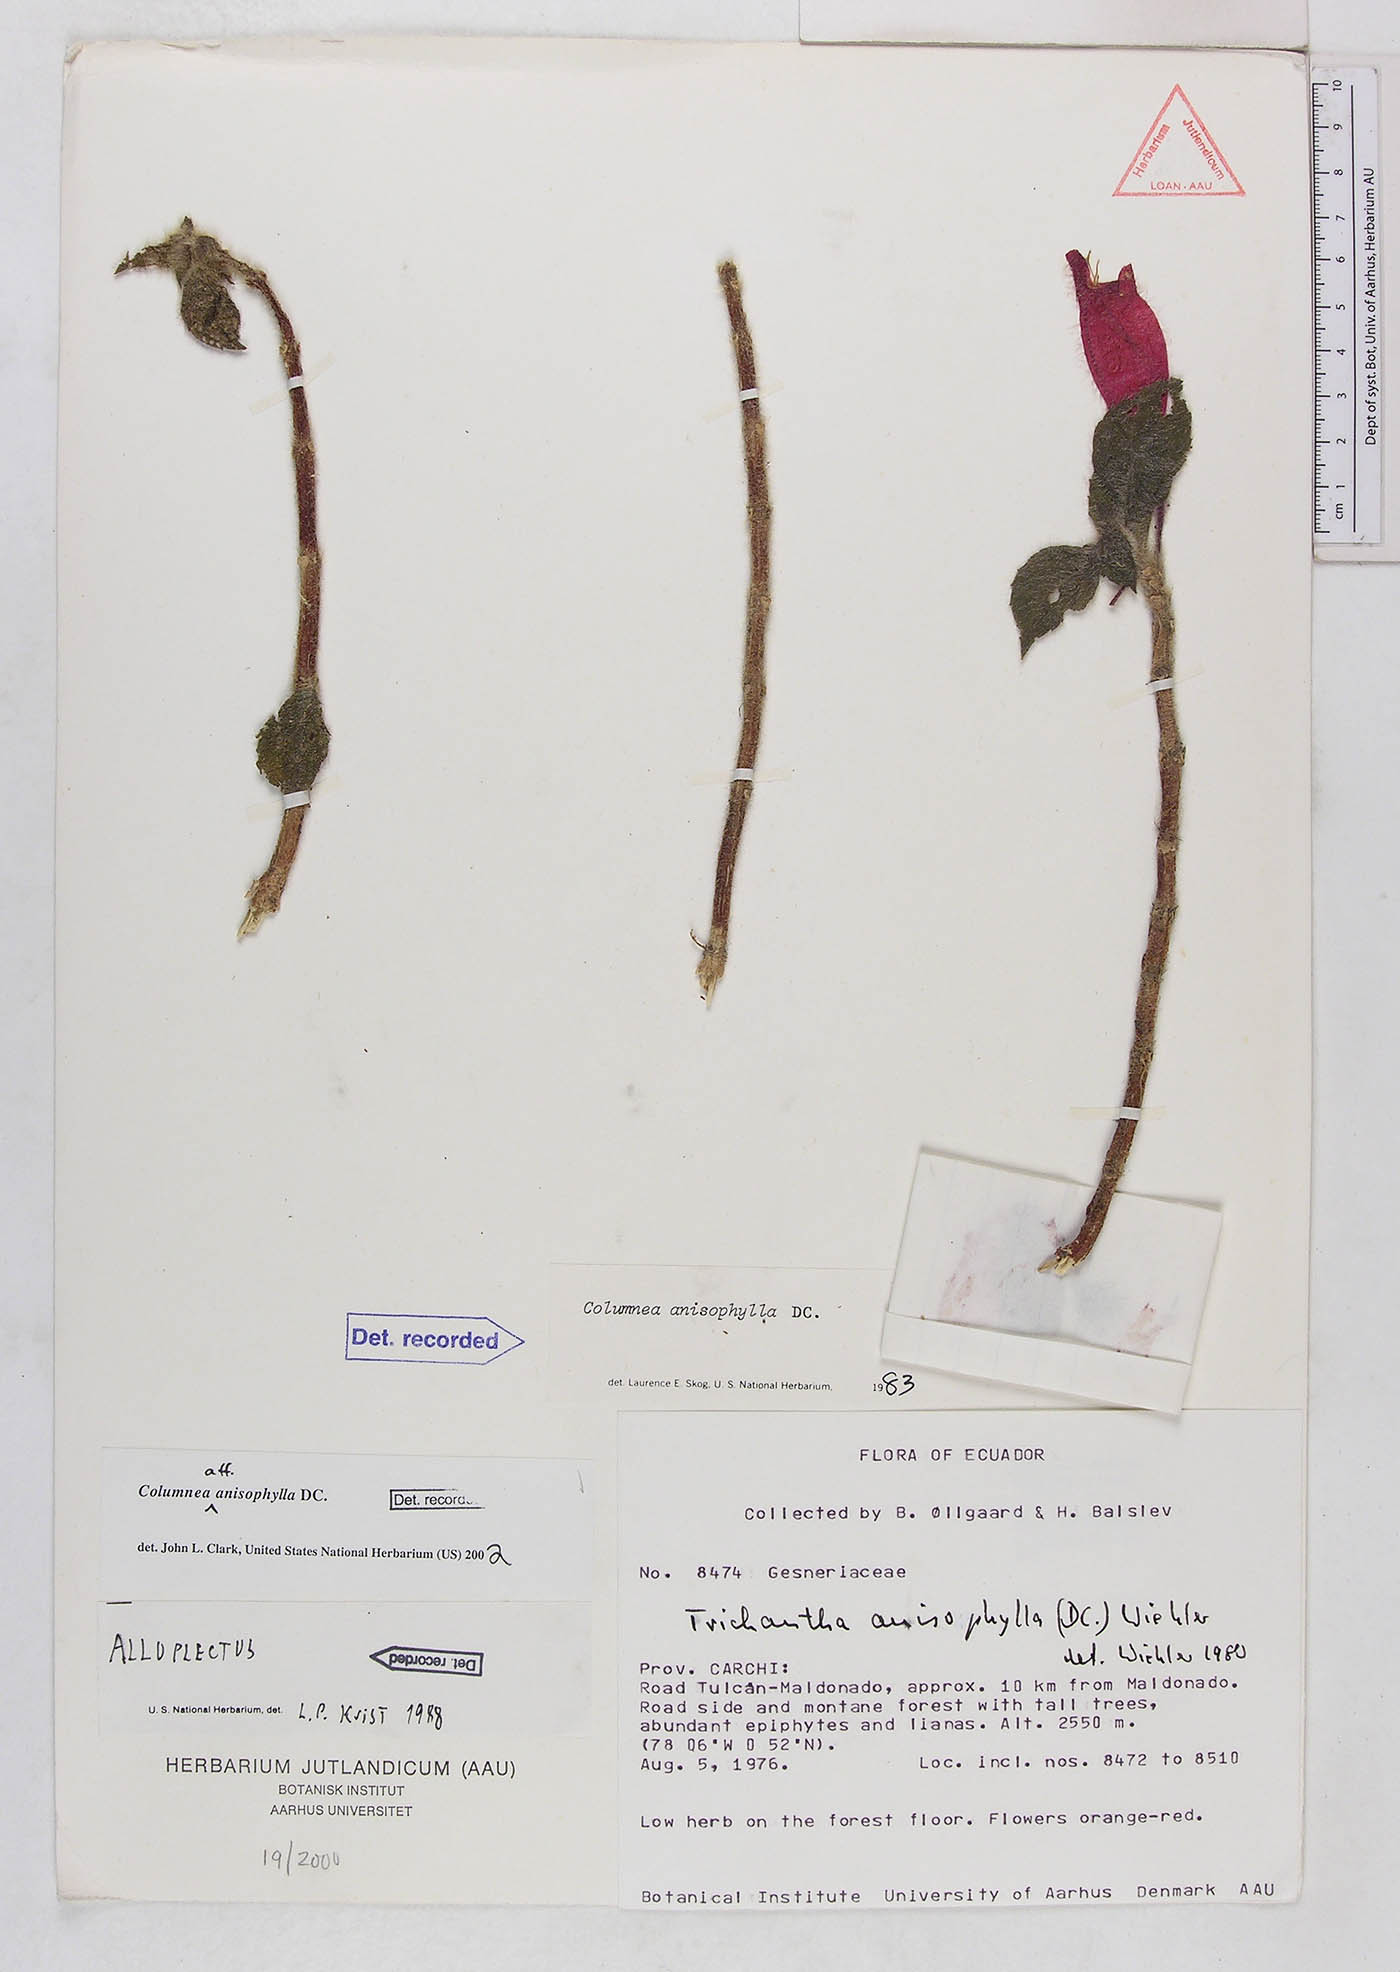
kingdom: Plantae
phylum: Tracheophyta
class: Magnoliopsida
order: Lamiales
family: Gesneriaceae
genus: Columnea
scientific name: Columnea anisophylla
